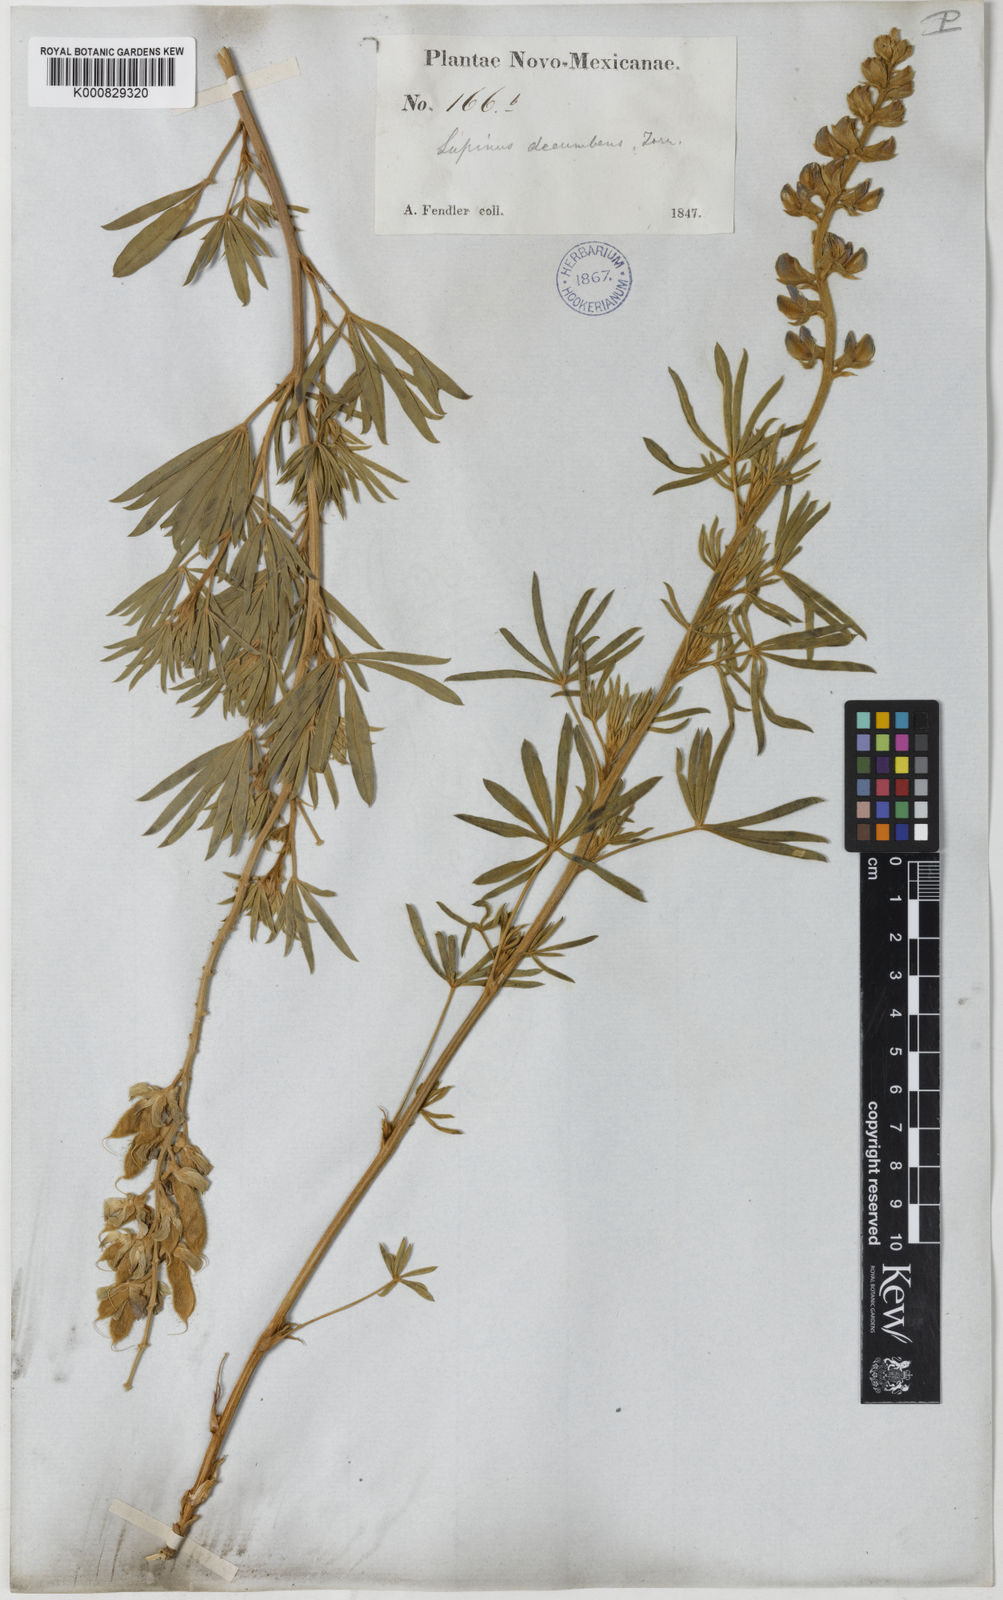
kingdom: Plantae
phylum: Tracheophyta
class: Magnoliopsida
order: Fabales
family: Fabaceae
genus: Lupinus
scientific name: Lupinus
